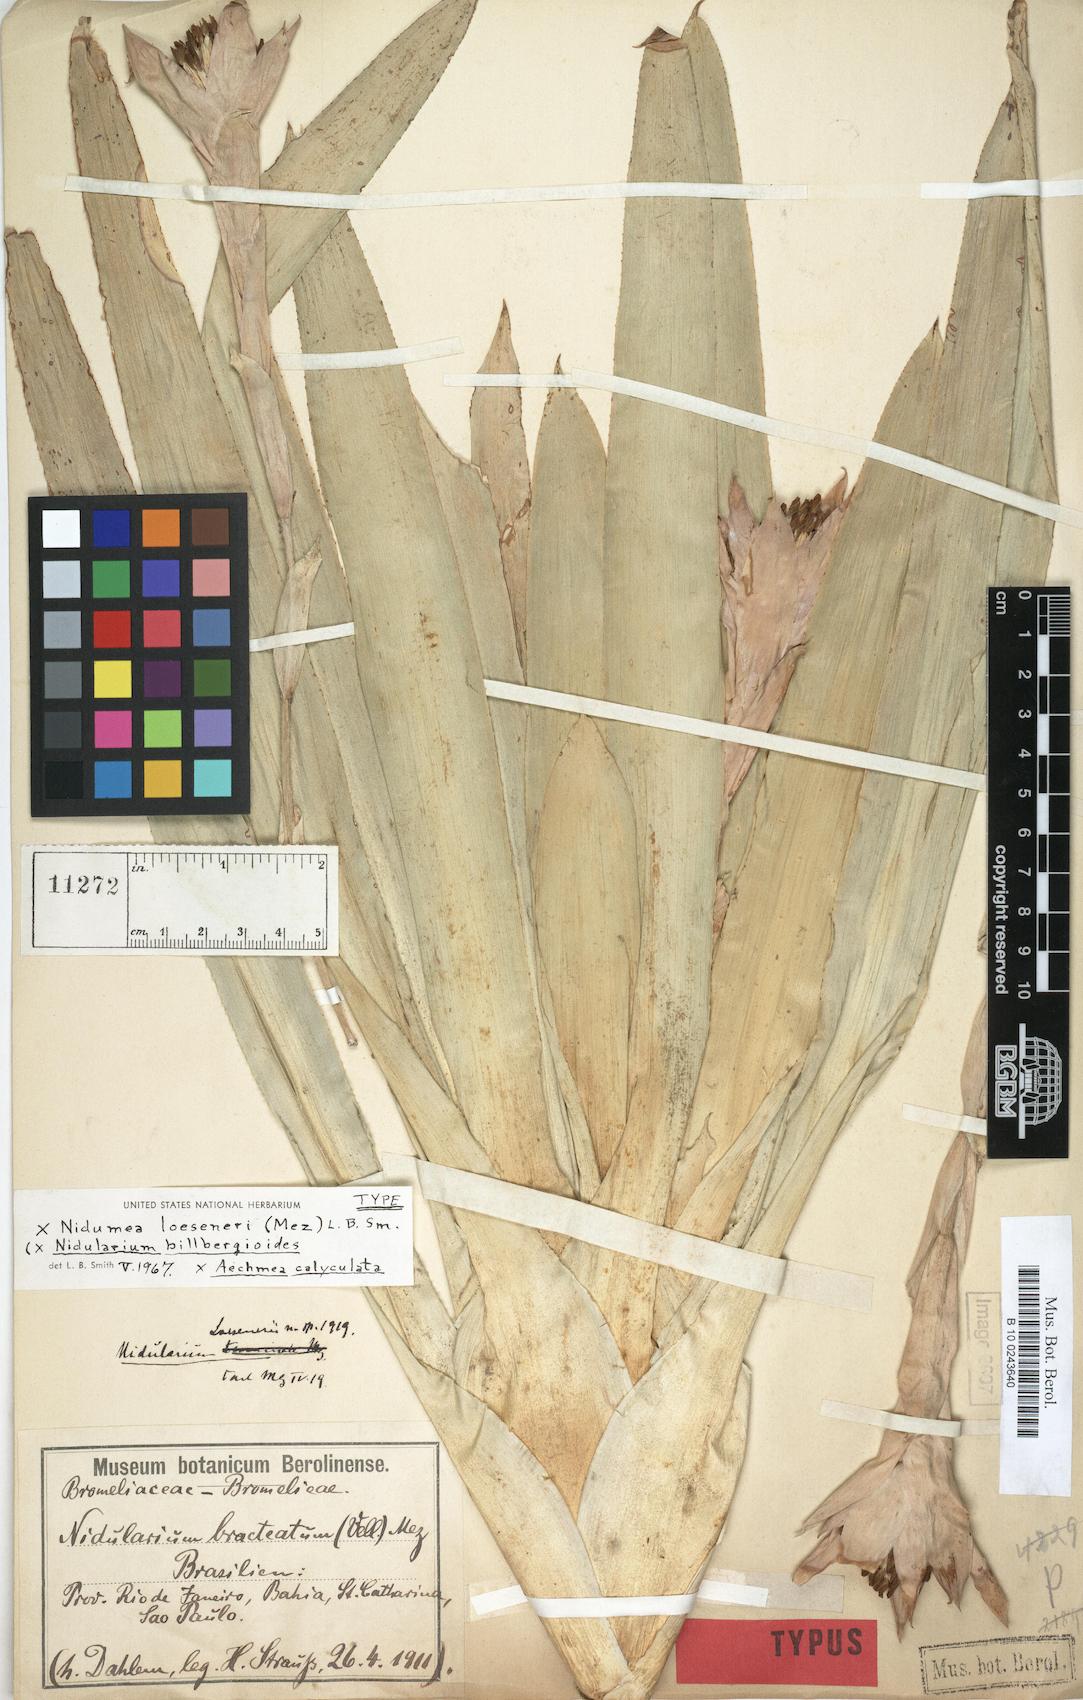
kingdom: Plantae
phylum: Tracheophyta
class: Liliopsida
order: Poales
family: Bromeliaceae
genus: Aechopsis
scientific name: Aechopsis loeseneri
